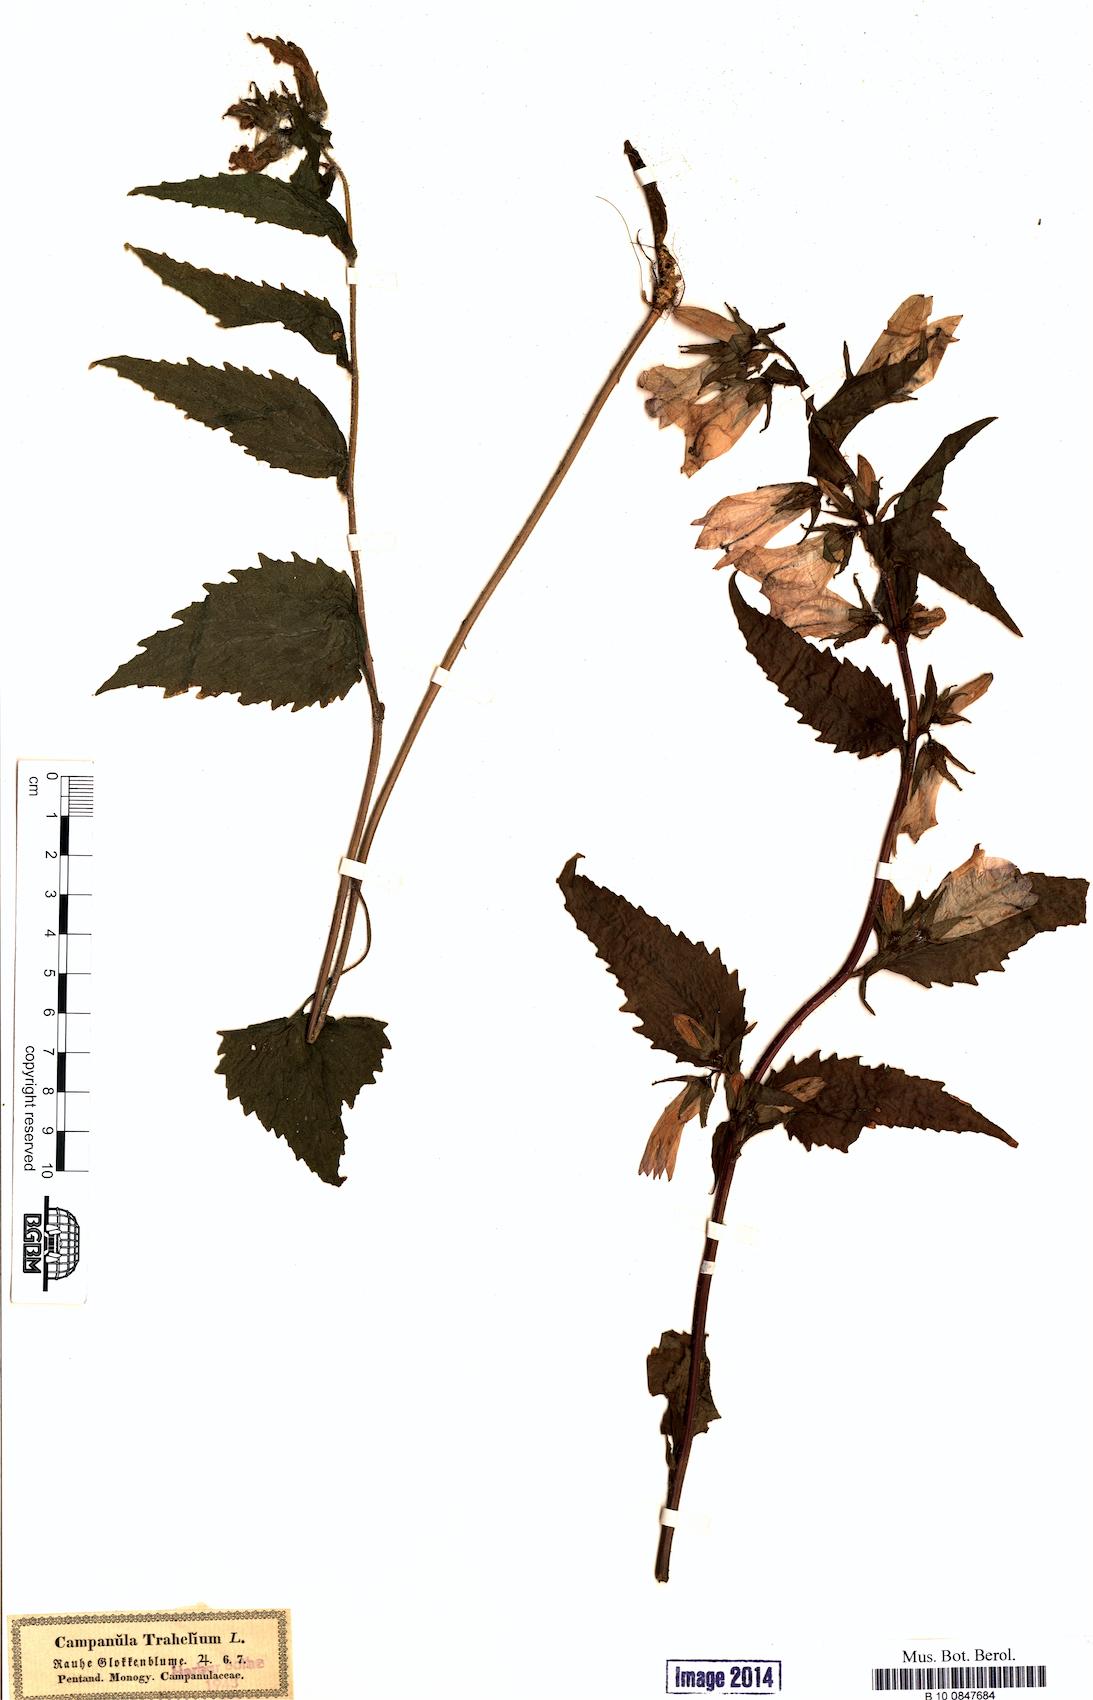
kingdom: Plantae
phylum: Tracheophyta
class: Magnoliopsida
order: Asterales
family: Campanulaceae
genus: Campanula
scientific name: Campanula trachelium
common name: Nettle-leaved bellflower
